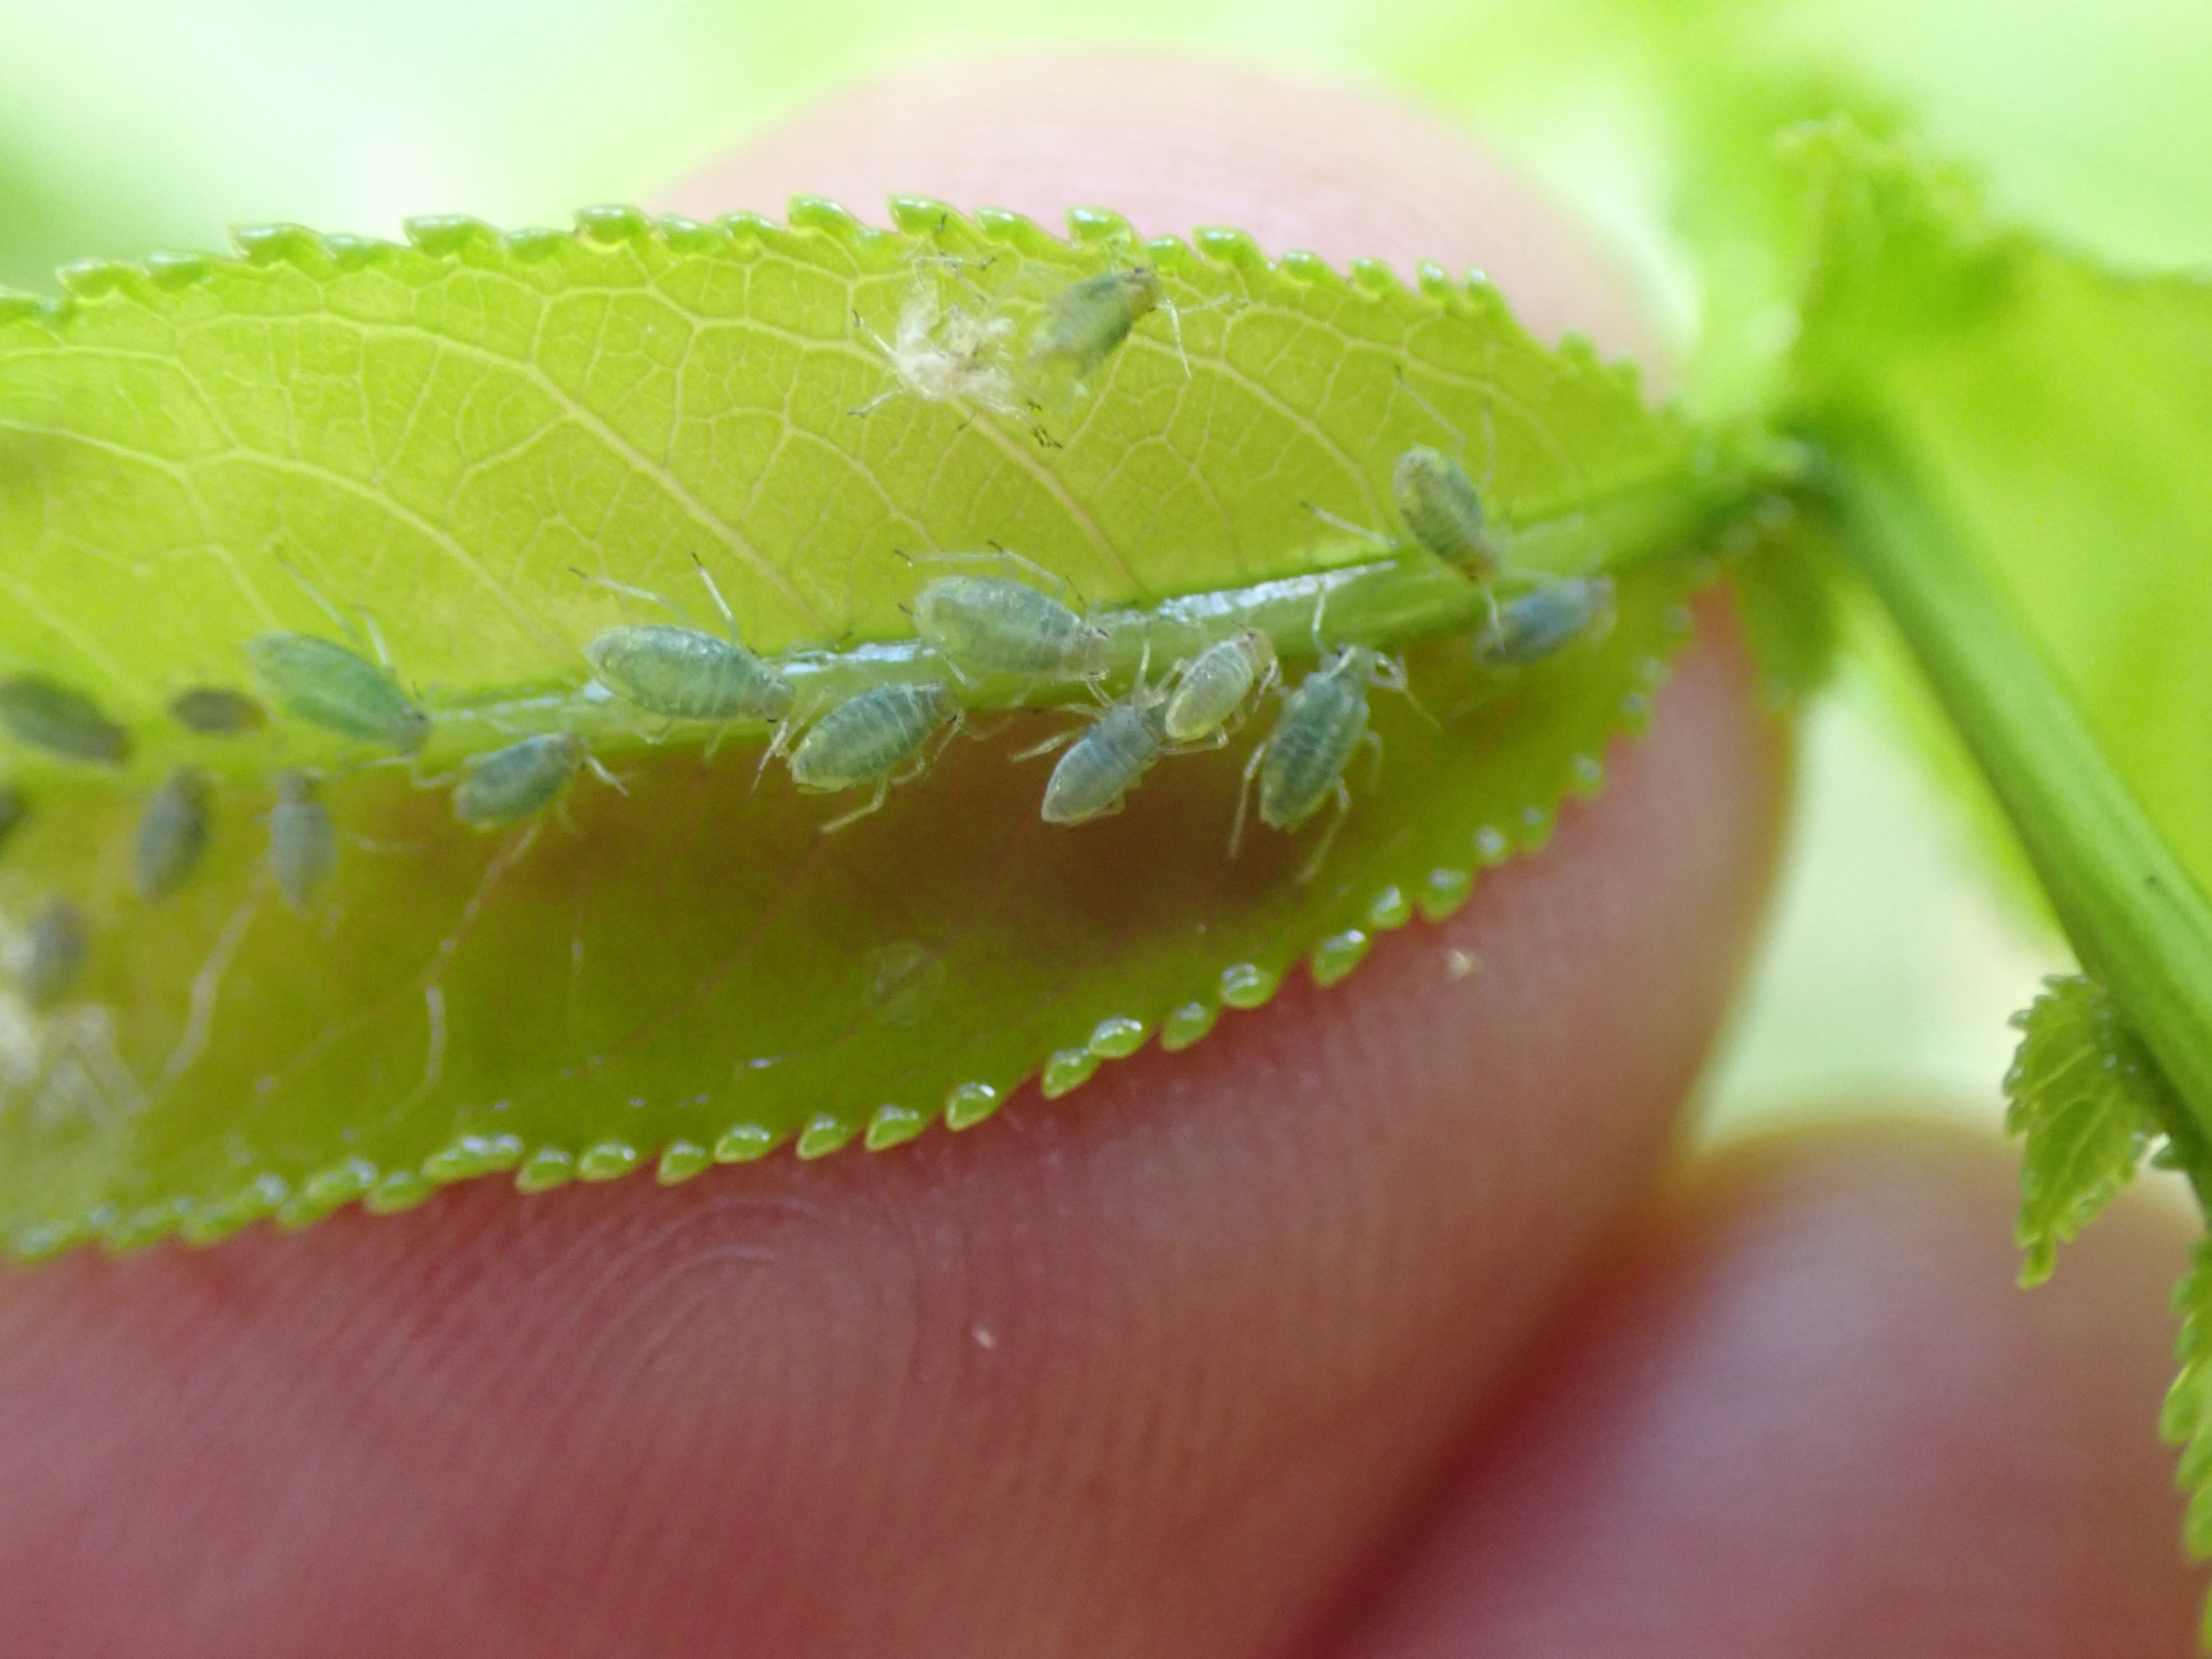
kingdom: Animalia
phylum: Arthropoda
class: Insecta
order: Hemiptera
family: Aphididae
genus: Chaitophorus
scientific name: Chaitophorus capreae
